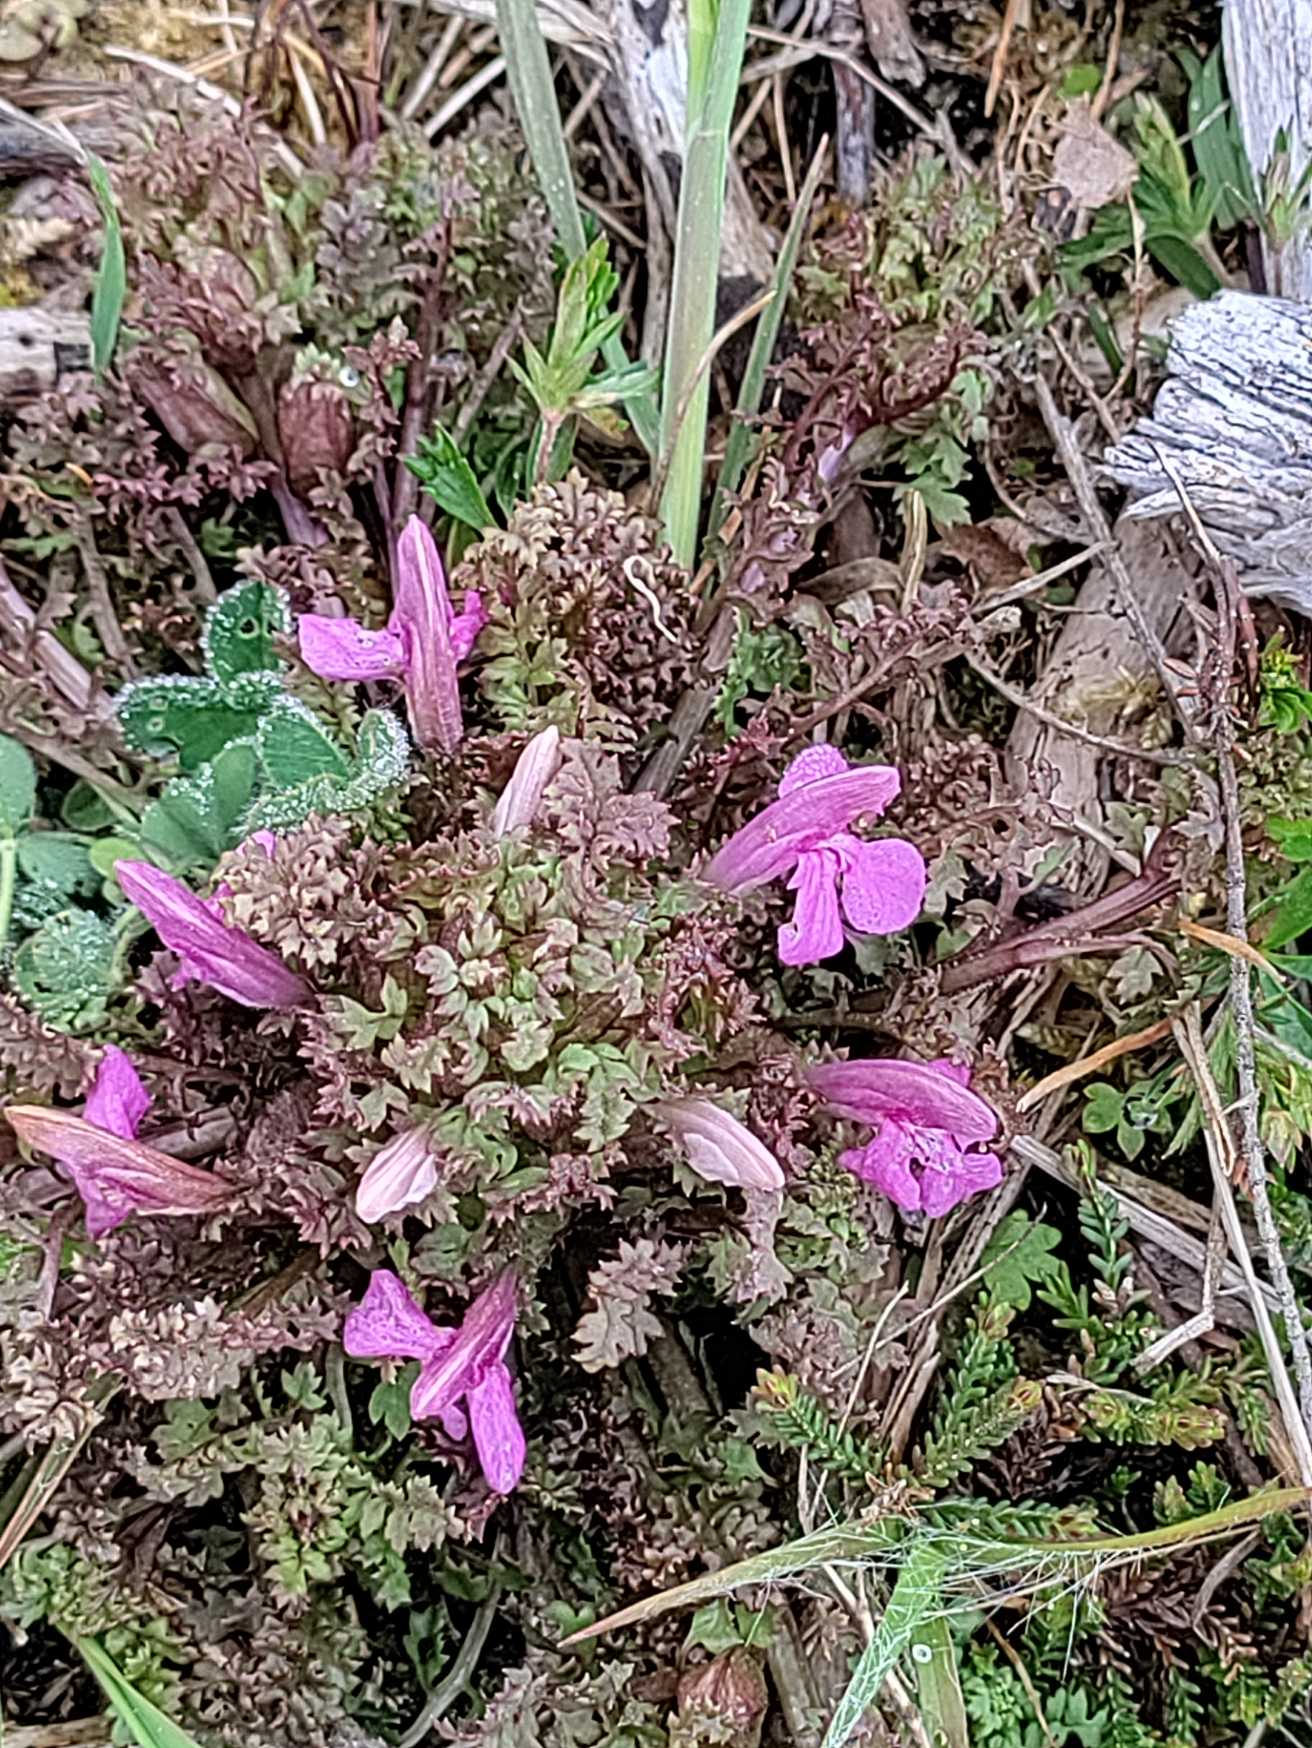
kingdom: Plantae
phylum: Tracheophyta
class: Magnoliopsida
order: Lamiales
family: Orobanchaceae
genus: Pedicularis
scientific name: Pedicularis sylvatica
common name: Mose-troldurt
